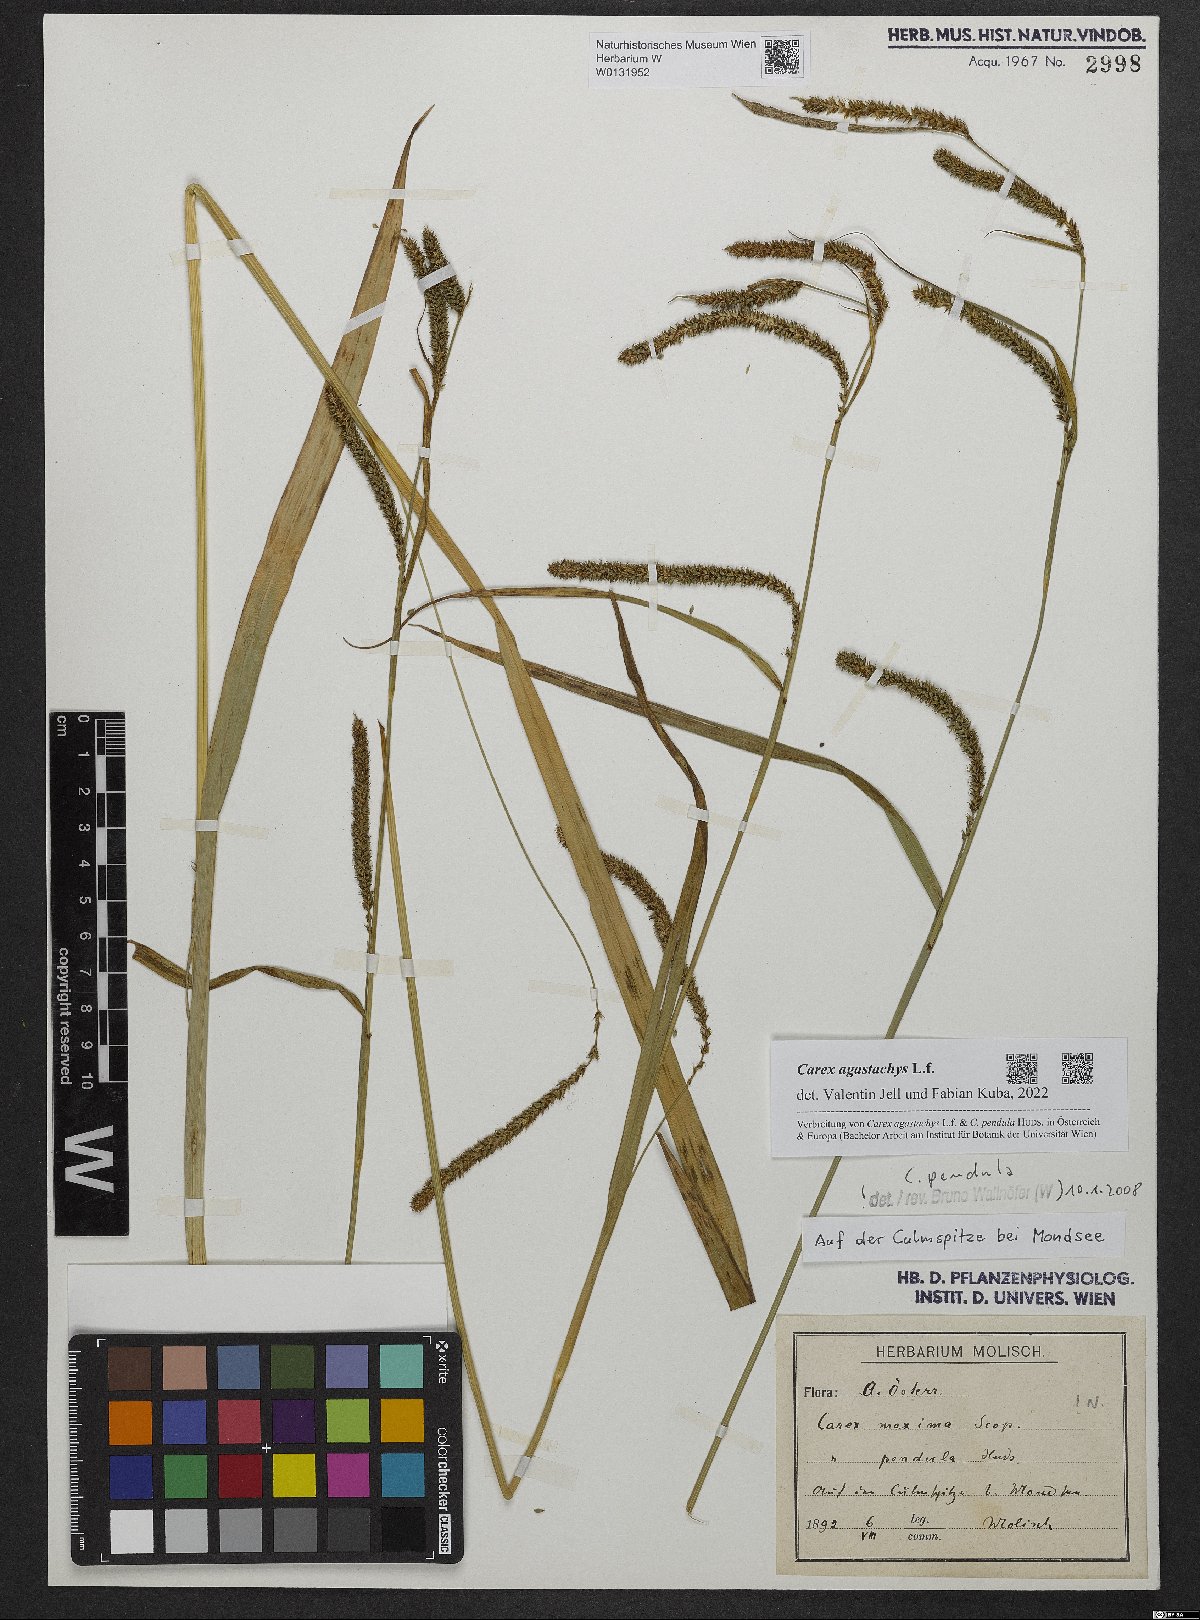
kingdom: Plantae
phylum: Tracheophyta
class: Liliopsida
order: Poales
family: Cyperaceae
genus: Carex
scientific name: Carex agastachys
